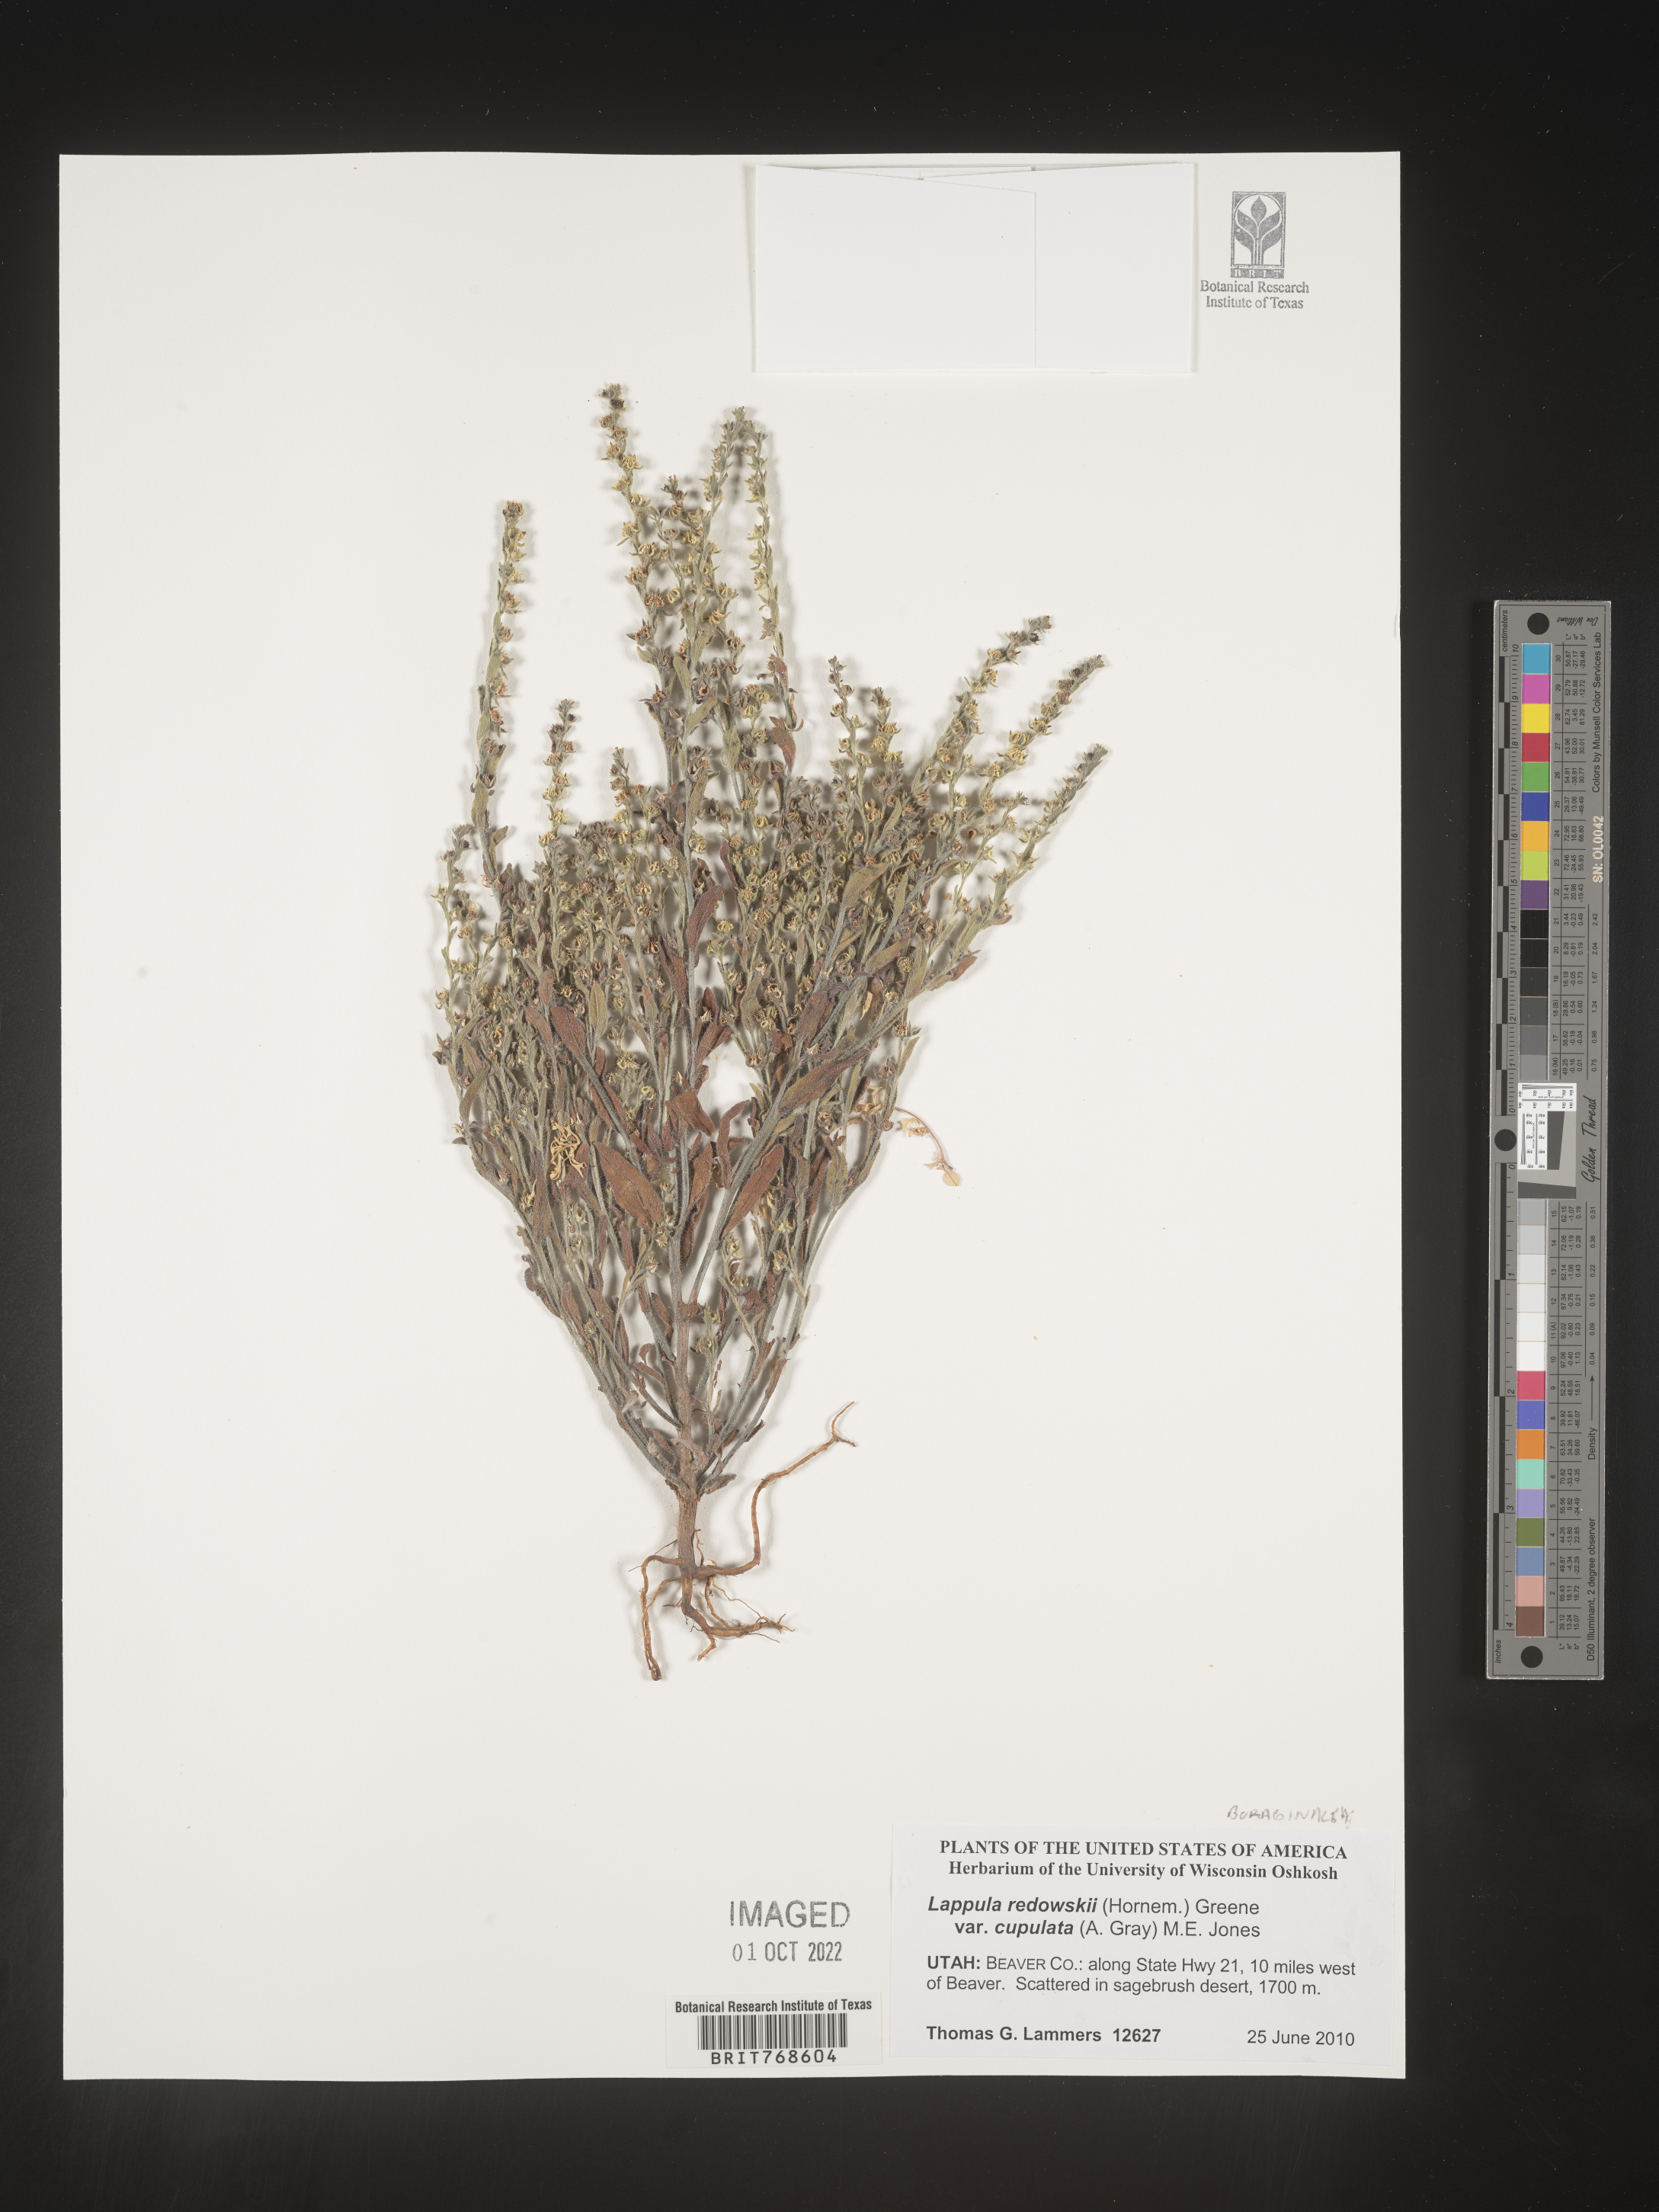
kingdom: Plantae
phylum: Tracheophyta
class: Magnoliopsida
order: Boraginales
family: Boraginaceae
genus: Lappula
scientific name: Lappula redowskii
